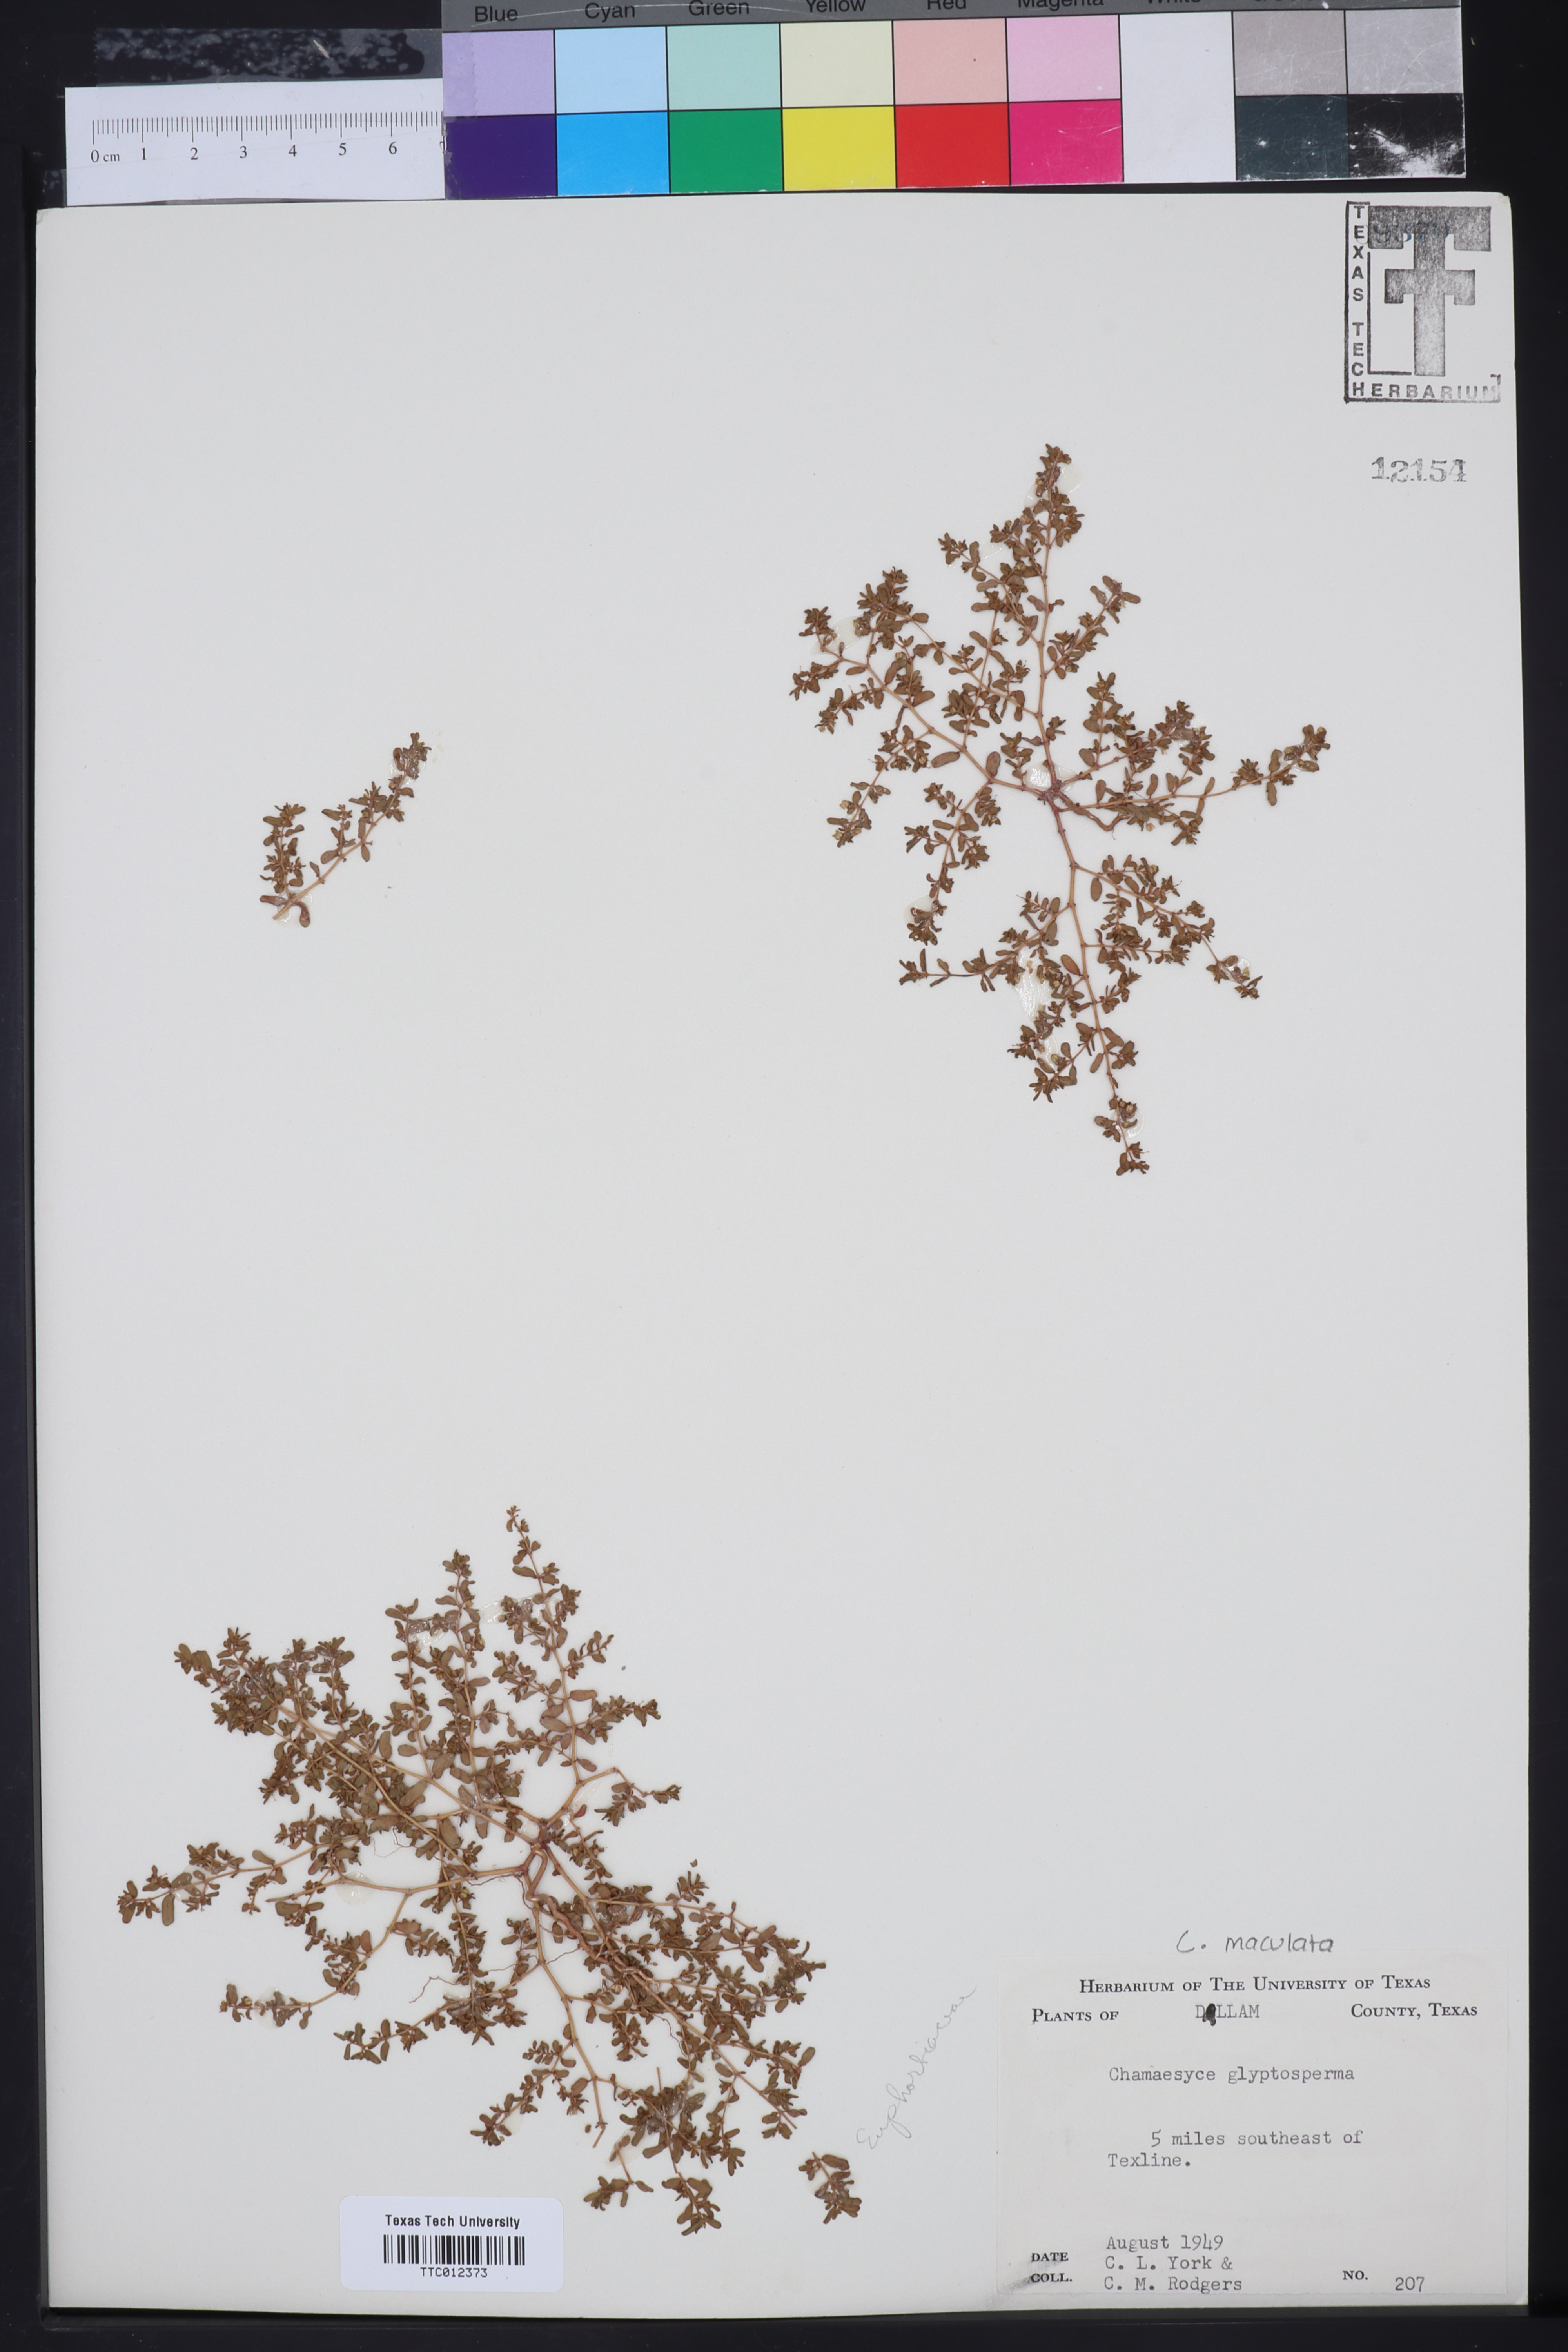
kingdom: Plantae
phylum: Tracheophyta
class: Magnoliopsida
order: Malpighiales
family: Euphorbiaceae
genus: Euphorbia
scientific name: Euphorbia glyptosperma
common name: Corrugate-seeded spurge
